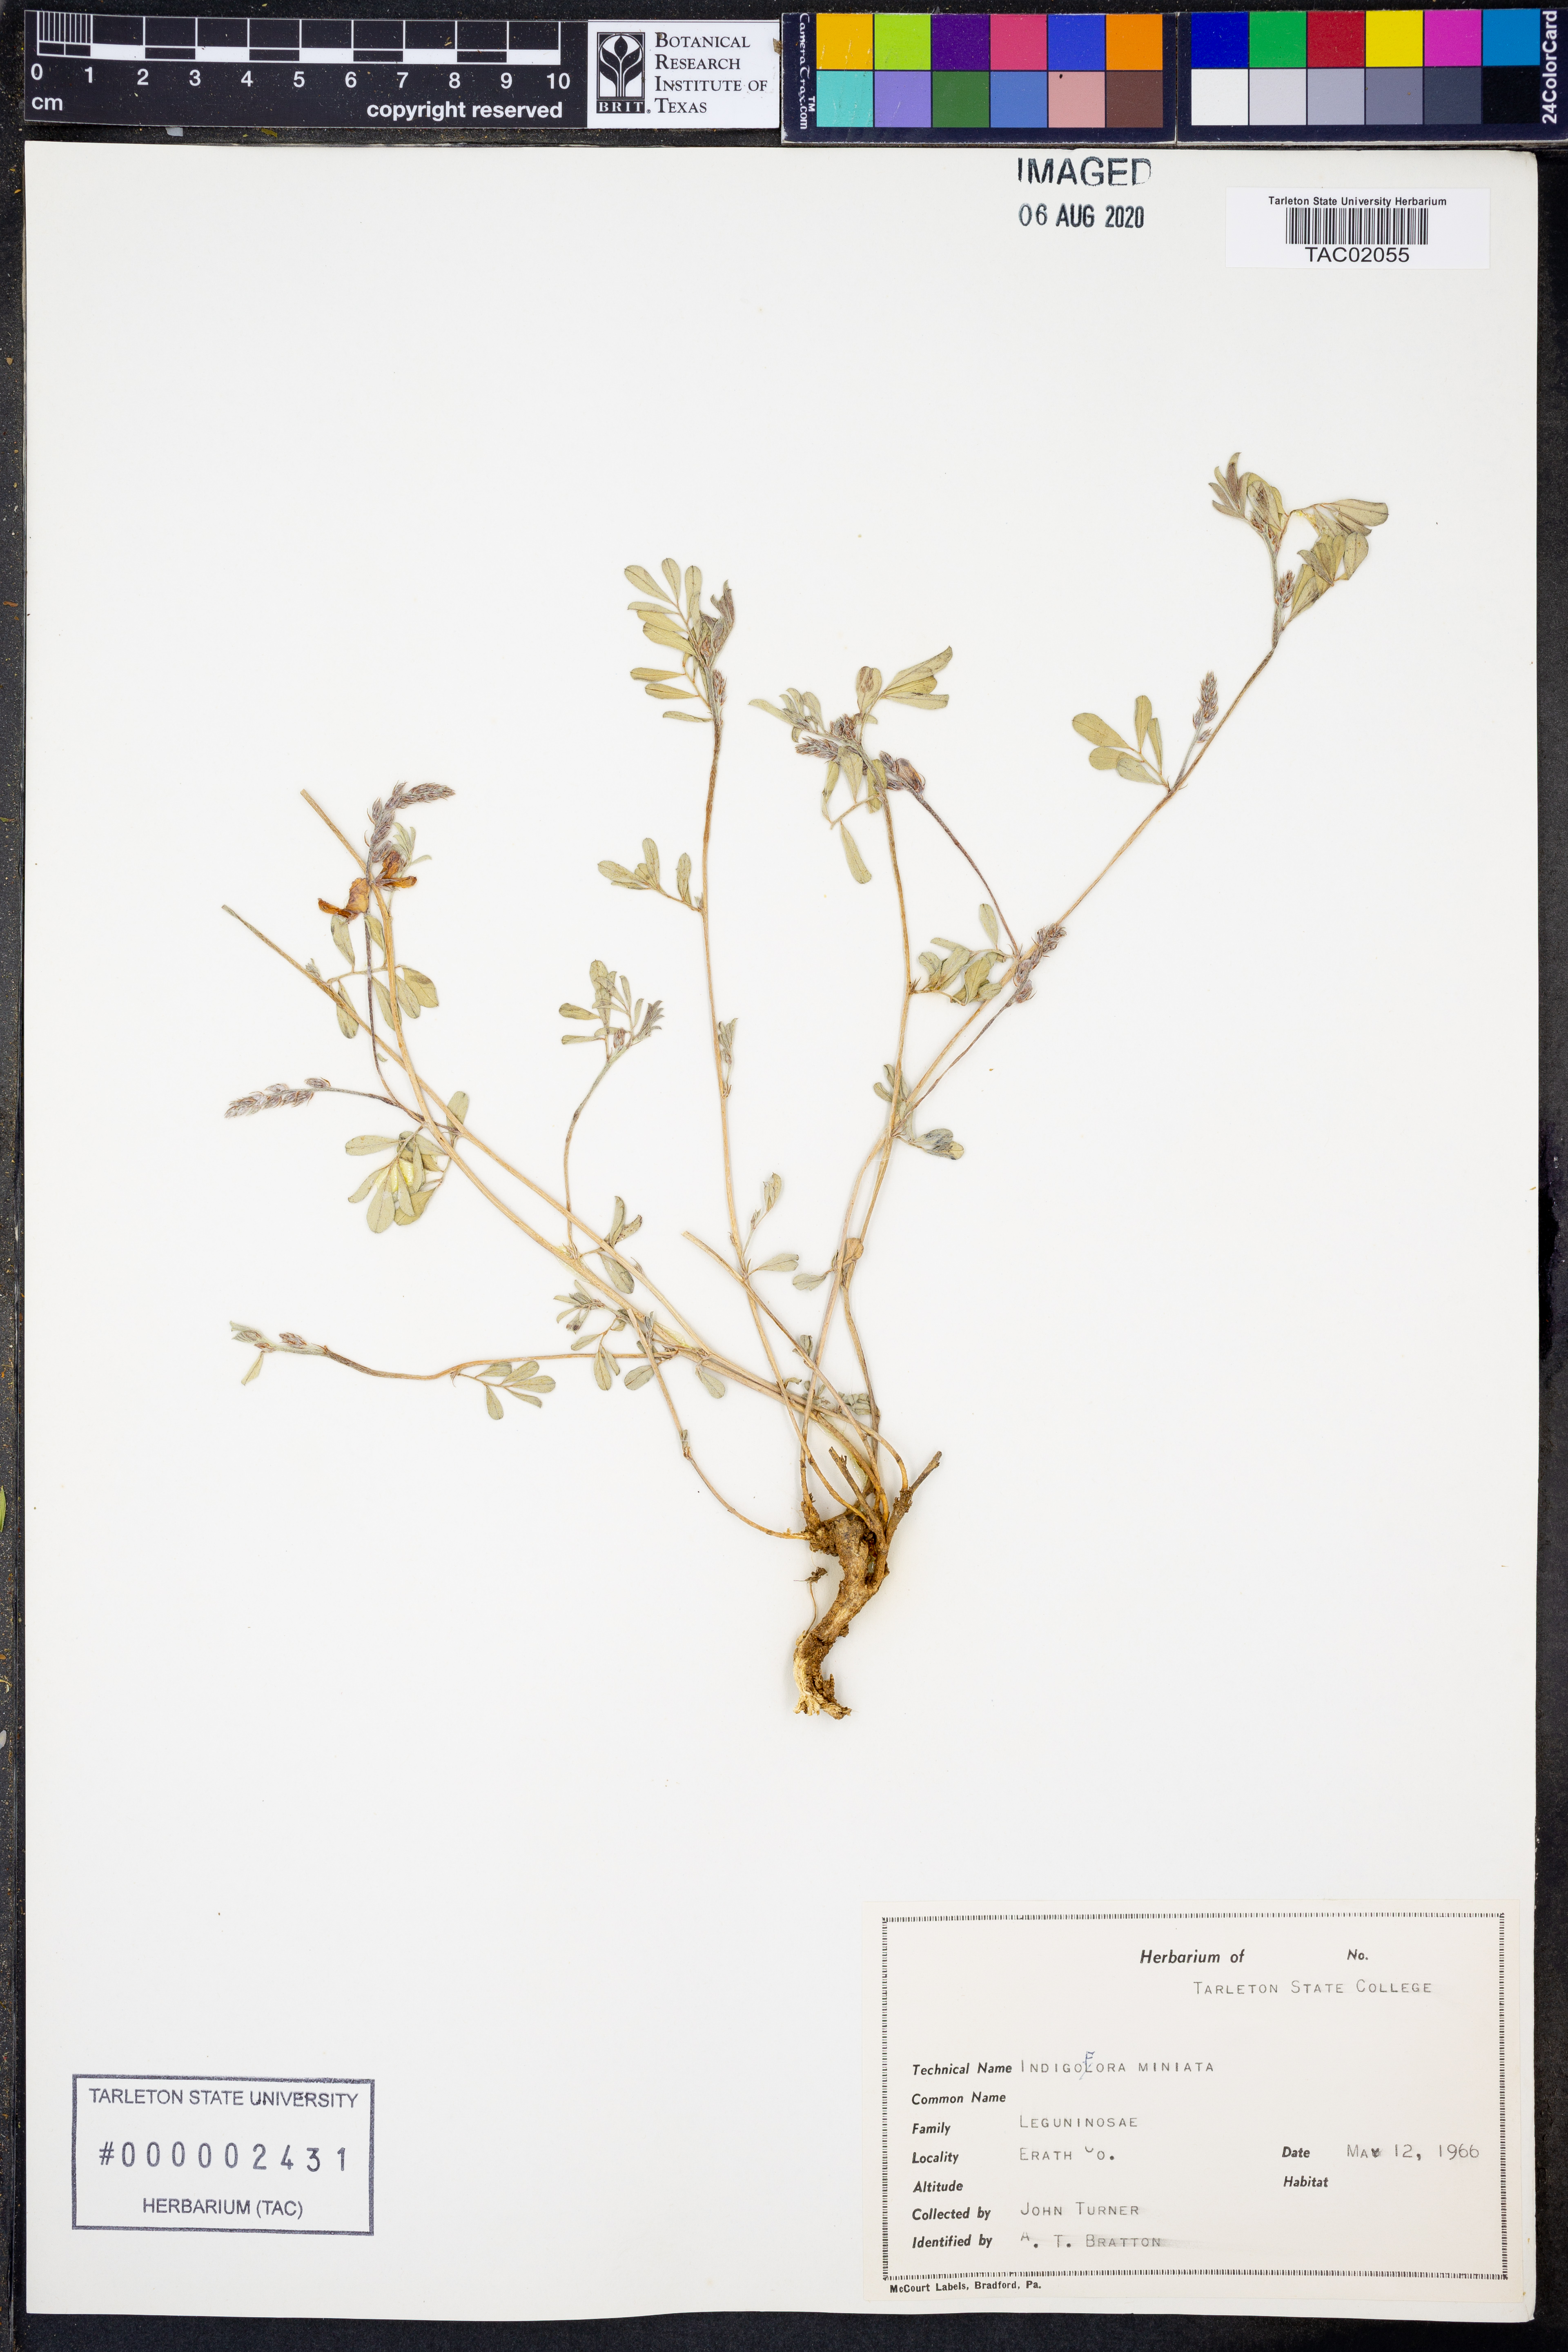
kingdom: Plantae
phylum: Tracheophyta
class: Magnoliopsida
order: Fabales
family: Fabaceae
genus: Indigofera
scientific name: Indigofera miniata
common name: Coast indigo
